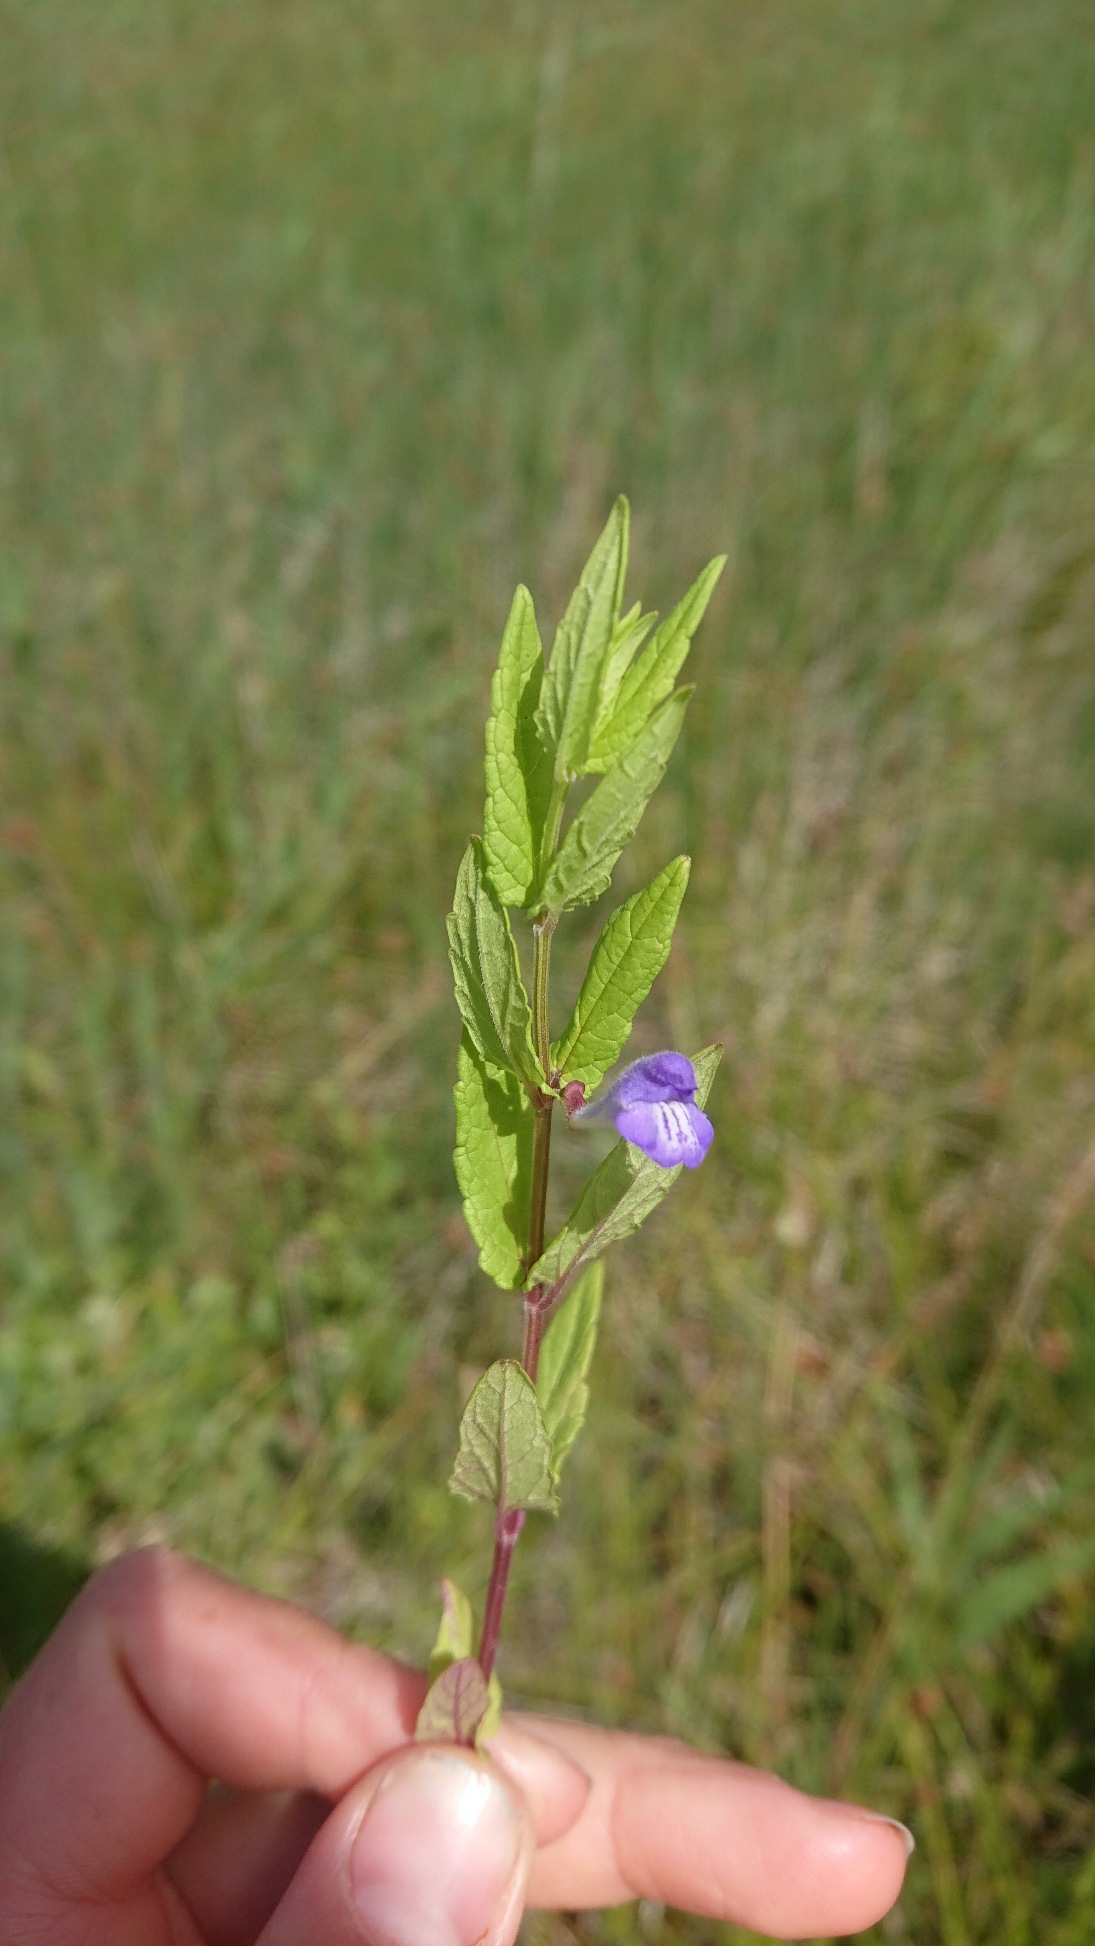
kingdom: Plantae
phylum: Tracheophyta
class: Magnoliopsida
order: Lamiales
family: Lamiaceae
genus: Scutellaria
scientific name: Scutellaria galericulata
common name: Almindelig skjolddrager
